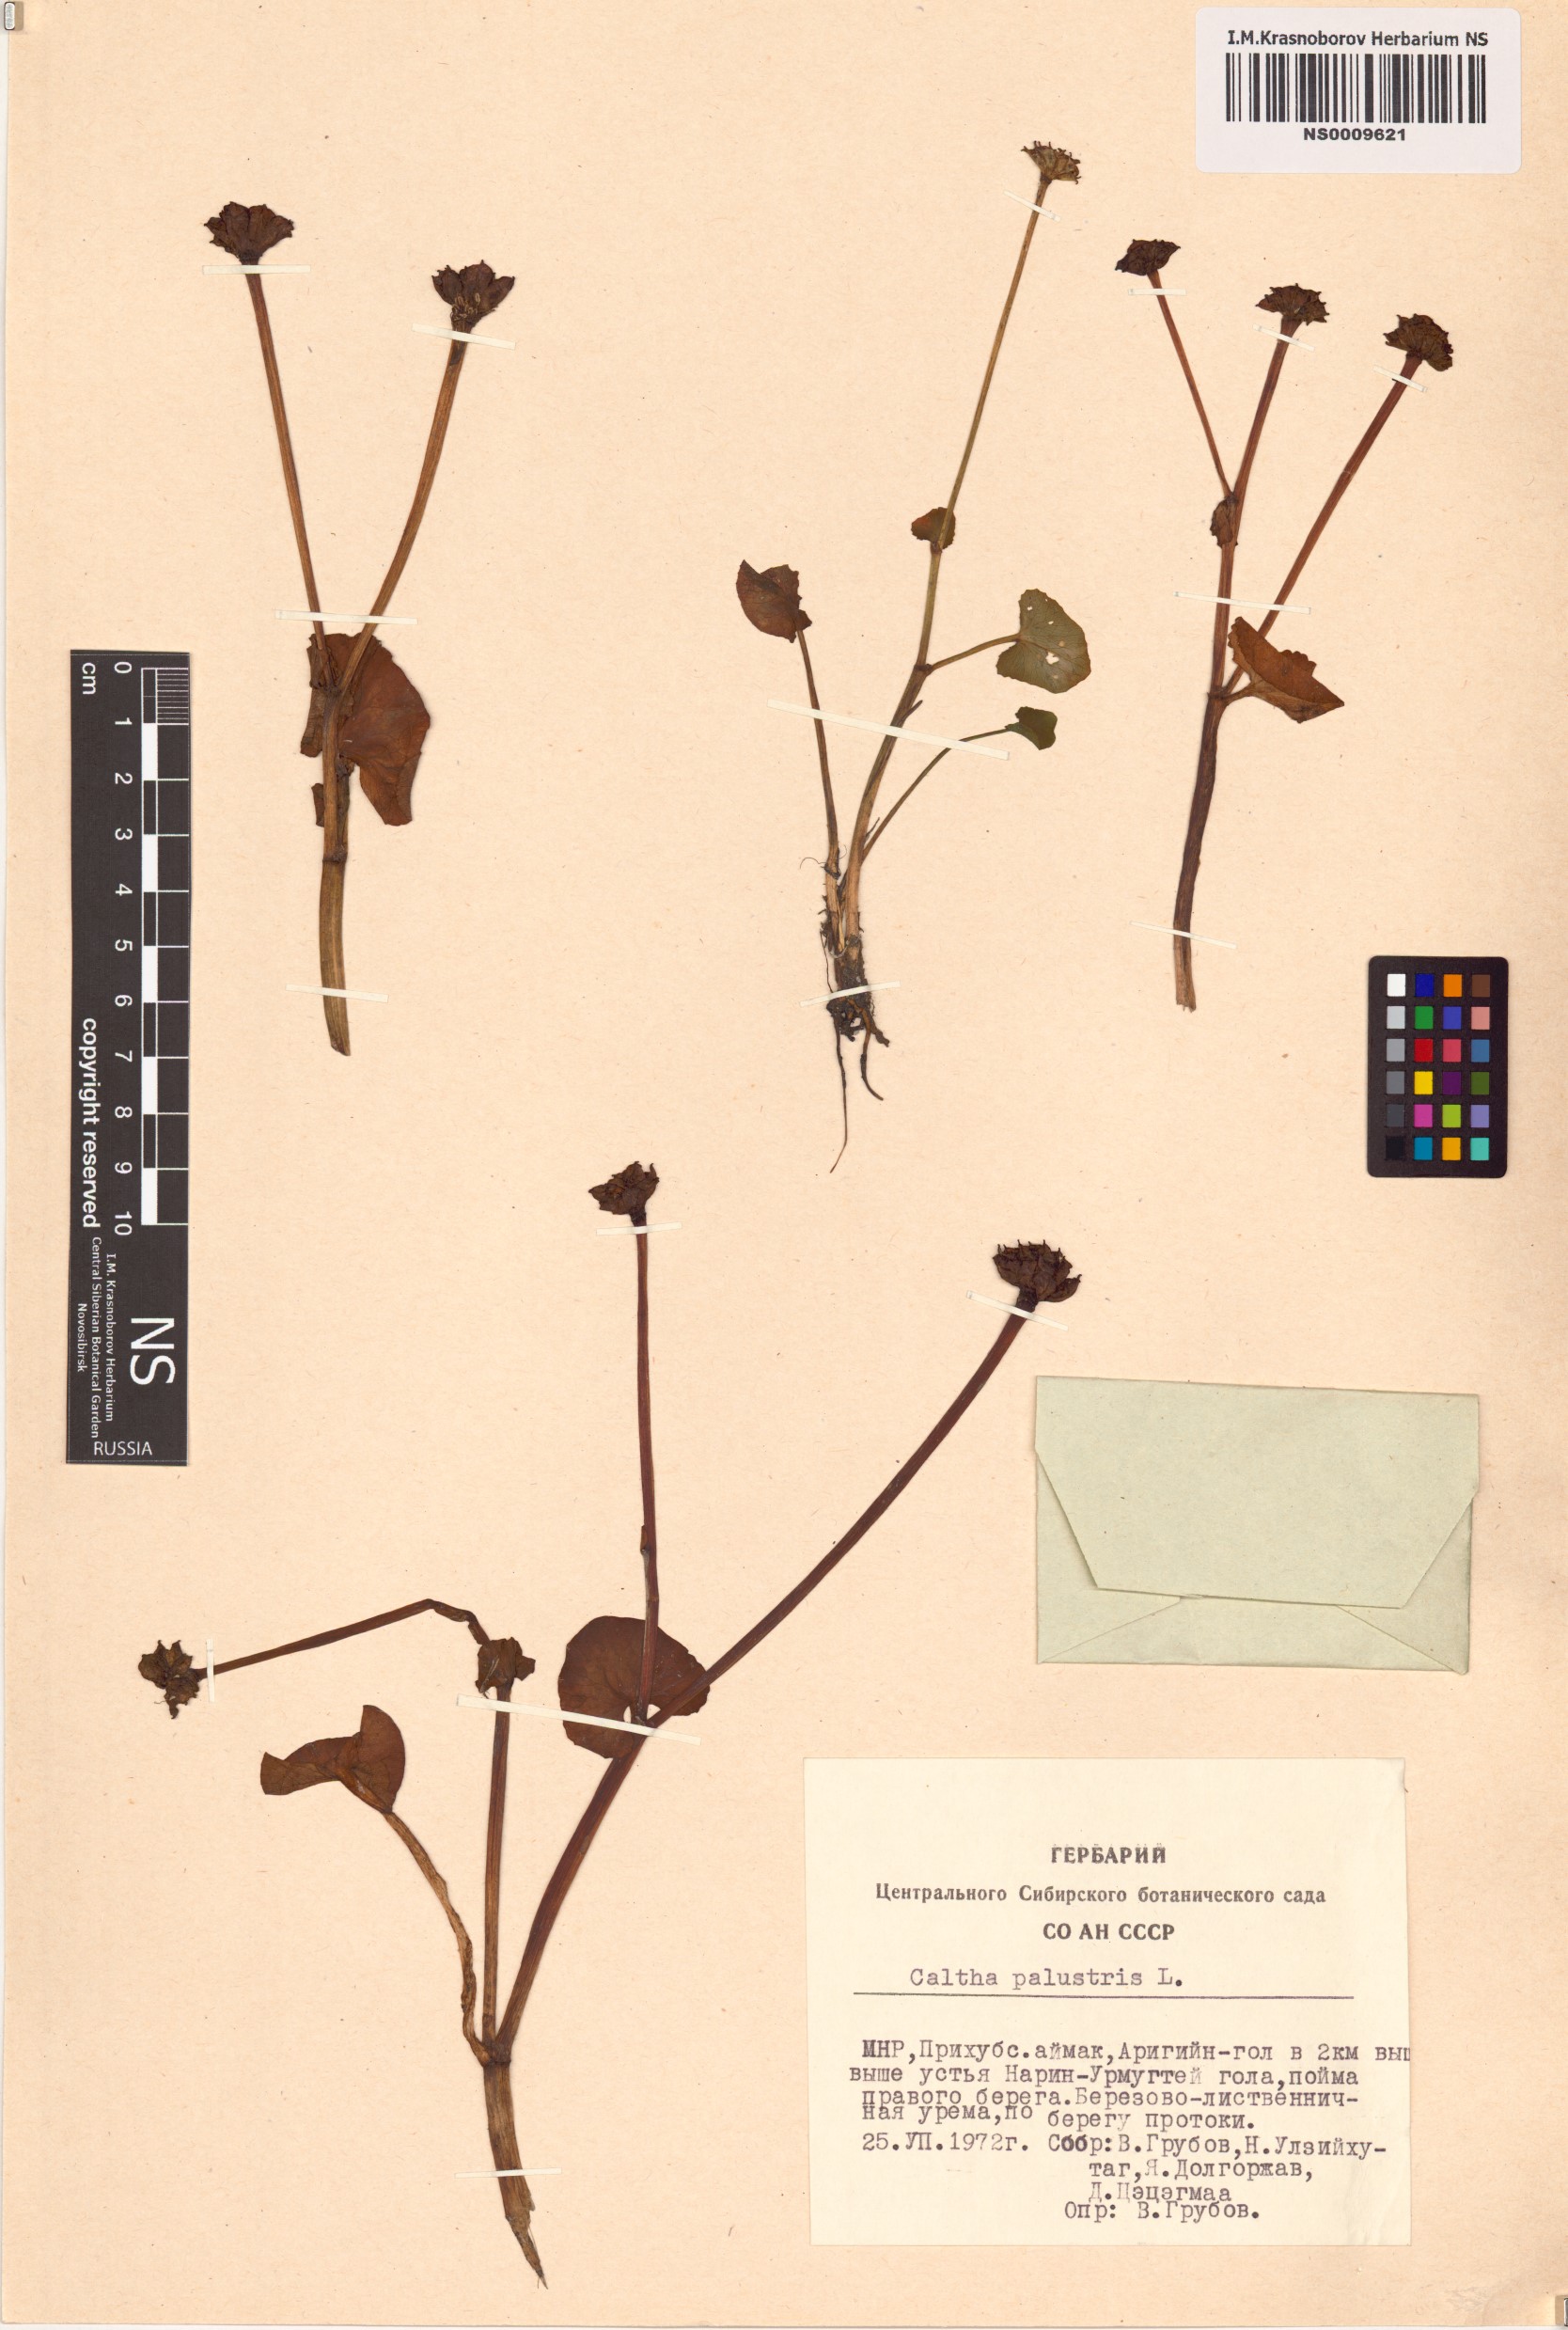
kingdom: Plantae
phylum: Tracheophyta
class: Magnoliopsida
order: Ranunculales
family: Ranunculaceae
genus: Caltha
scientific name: Caltha palustris
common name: Marsh marigold
